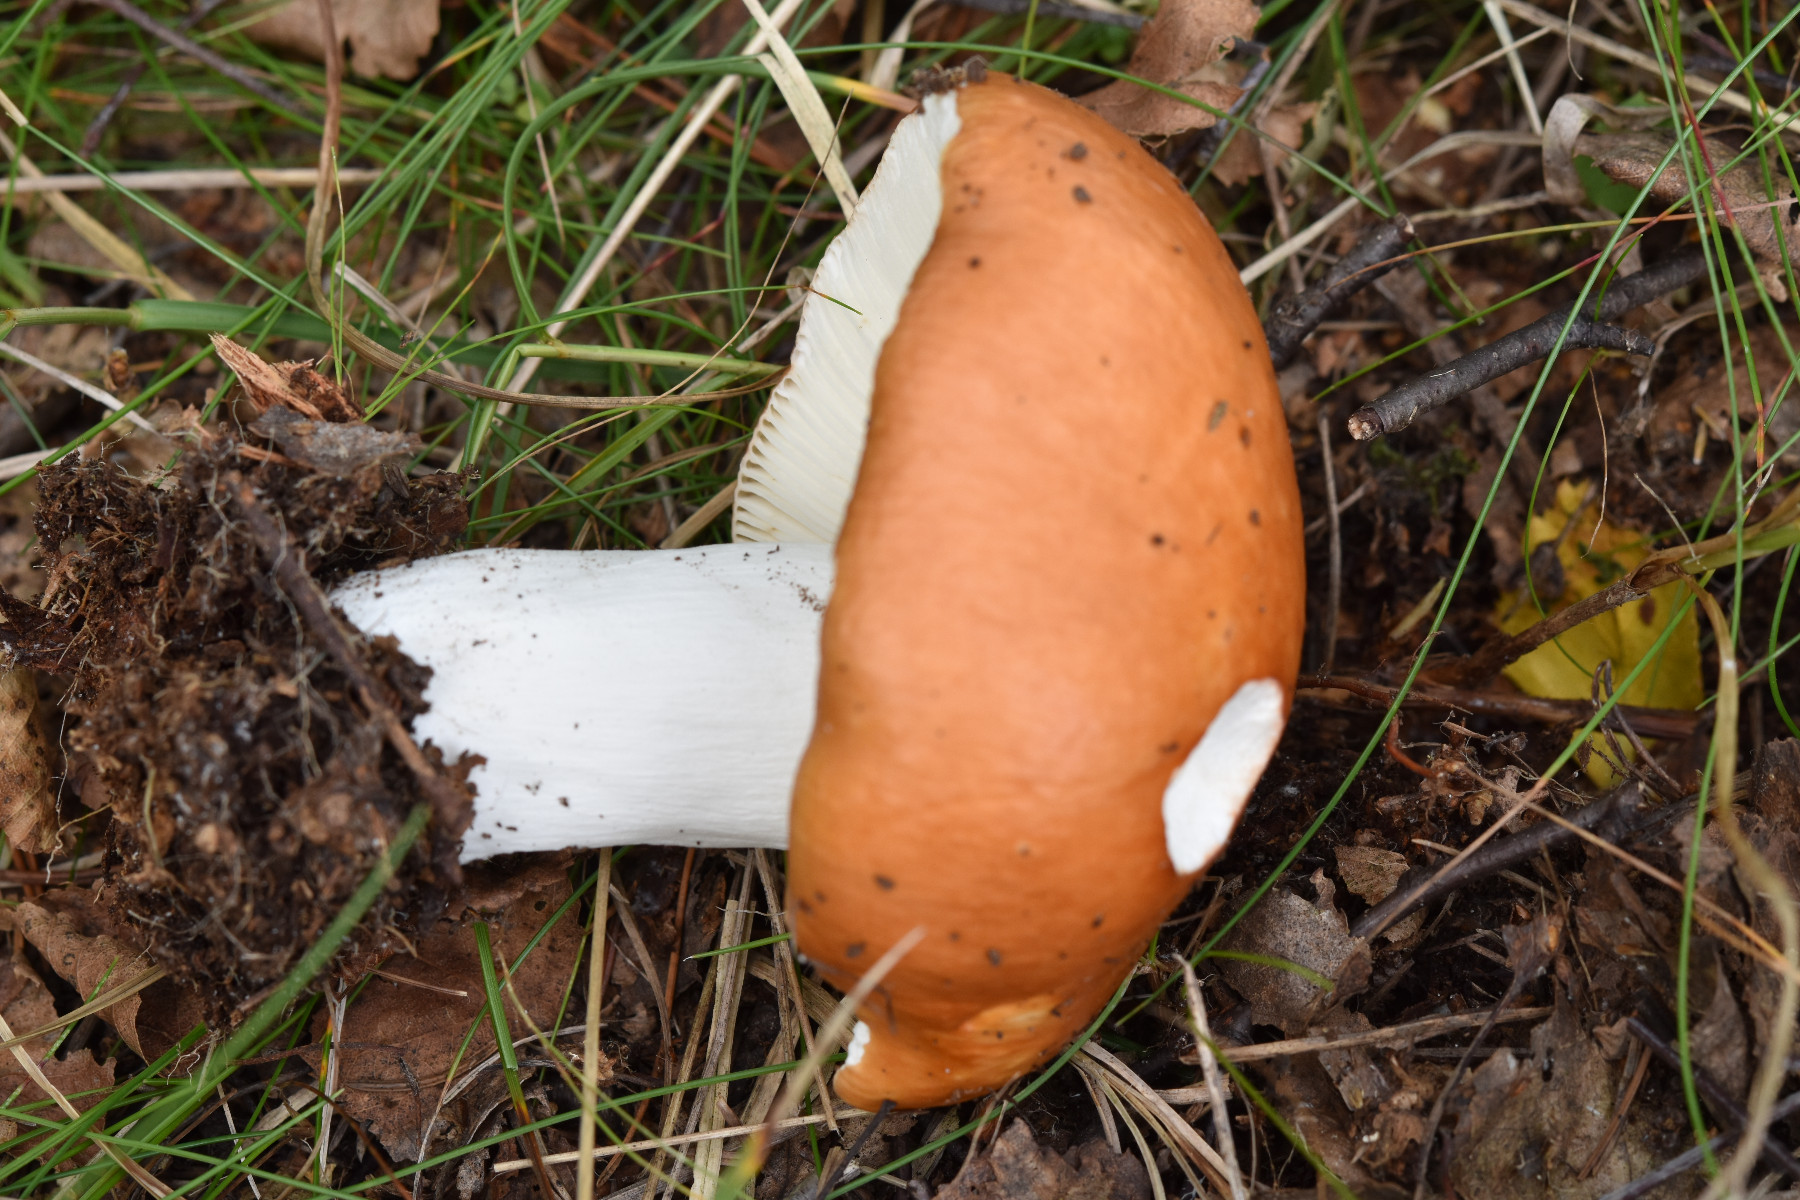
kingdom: Fungi
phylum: Basidiomycota
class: Agaricomycetes
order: Russulales
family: Russulaceae
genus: Russula
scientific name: Russula paludosa
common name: prægtig skørhat
